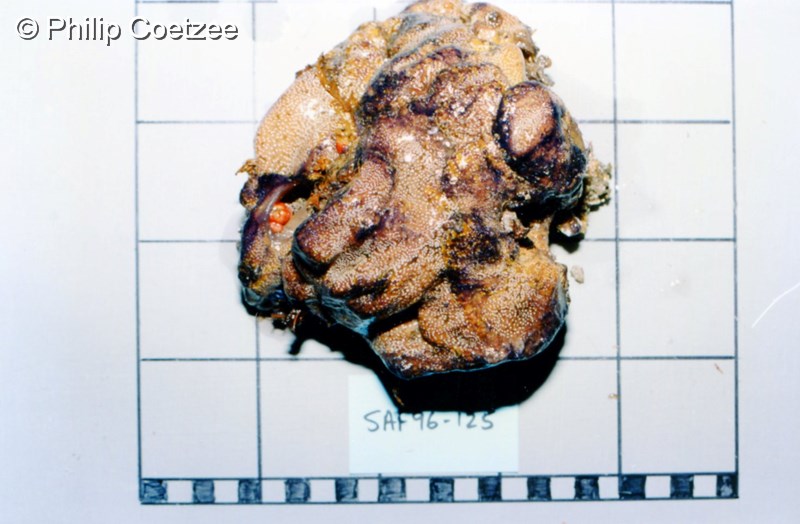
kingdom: Animalia
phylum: Chordata
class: Ascidiacea
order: Aplousobranchia
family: Diazonidae
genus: Diazona
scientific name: Diazona
